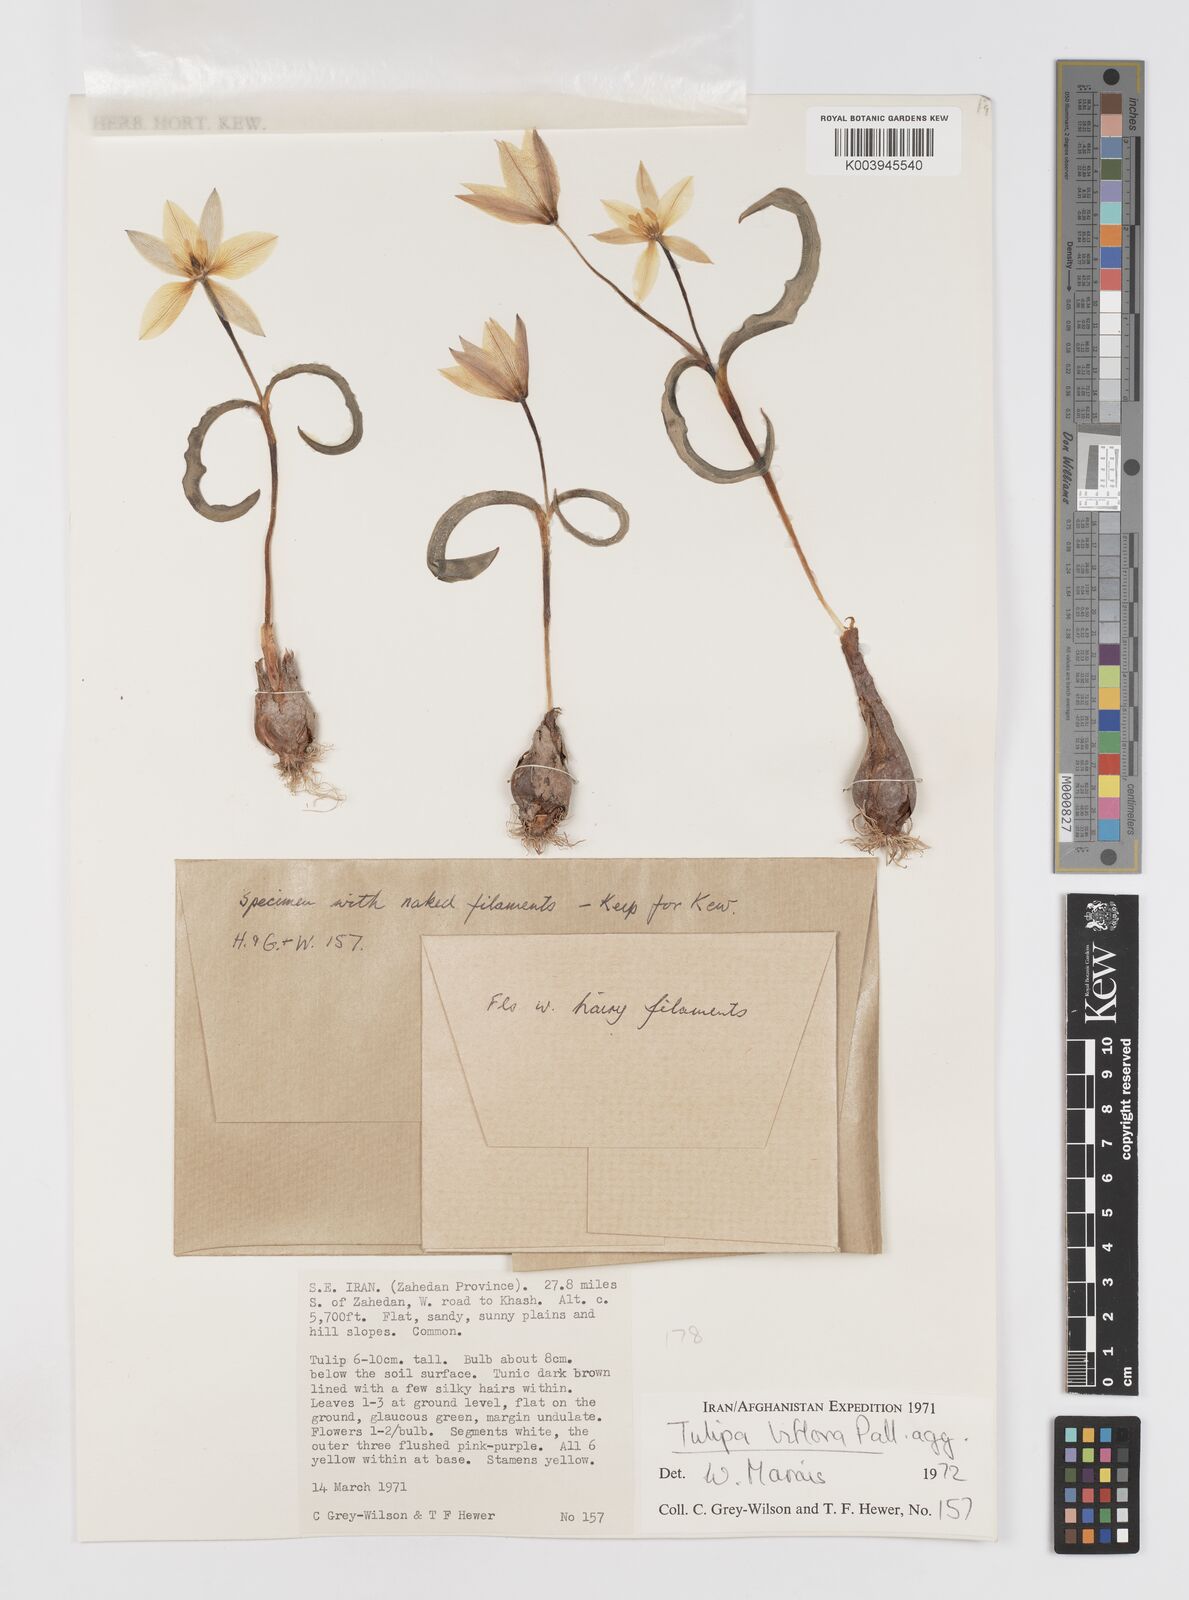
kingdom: Plantae
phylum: Tracheophyta
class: Liliopsida
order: Liliales
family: Liliaceae
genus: Tulipa
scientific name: Tulipa biflora
